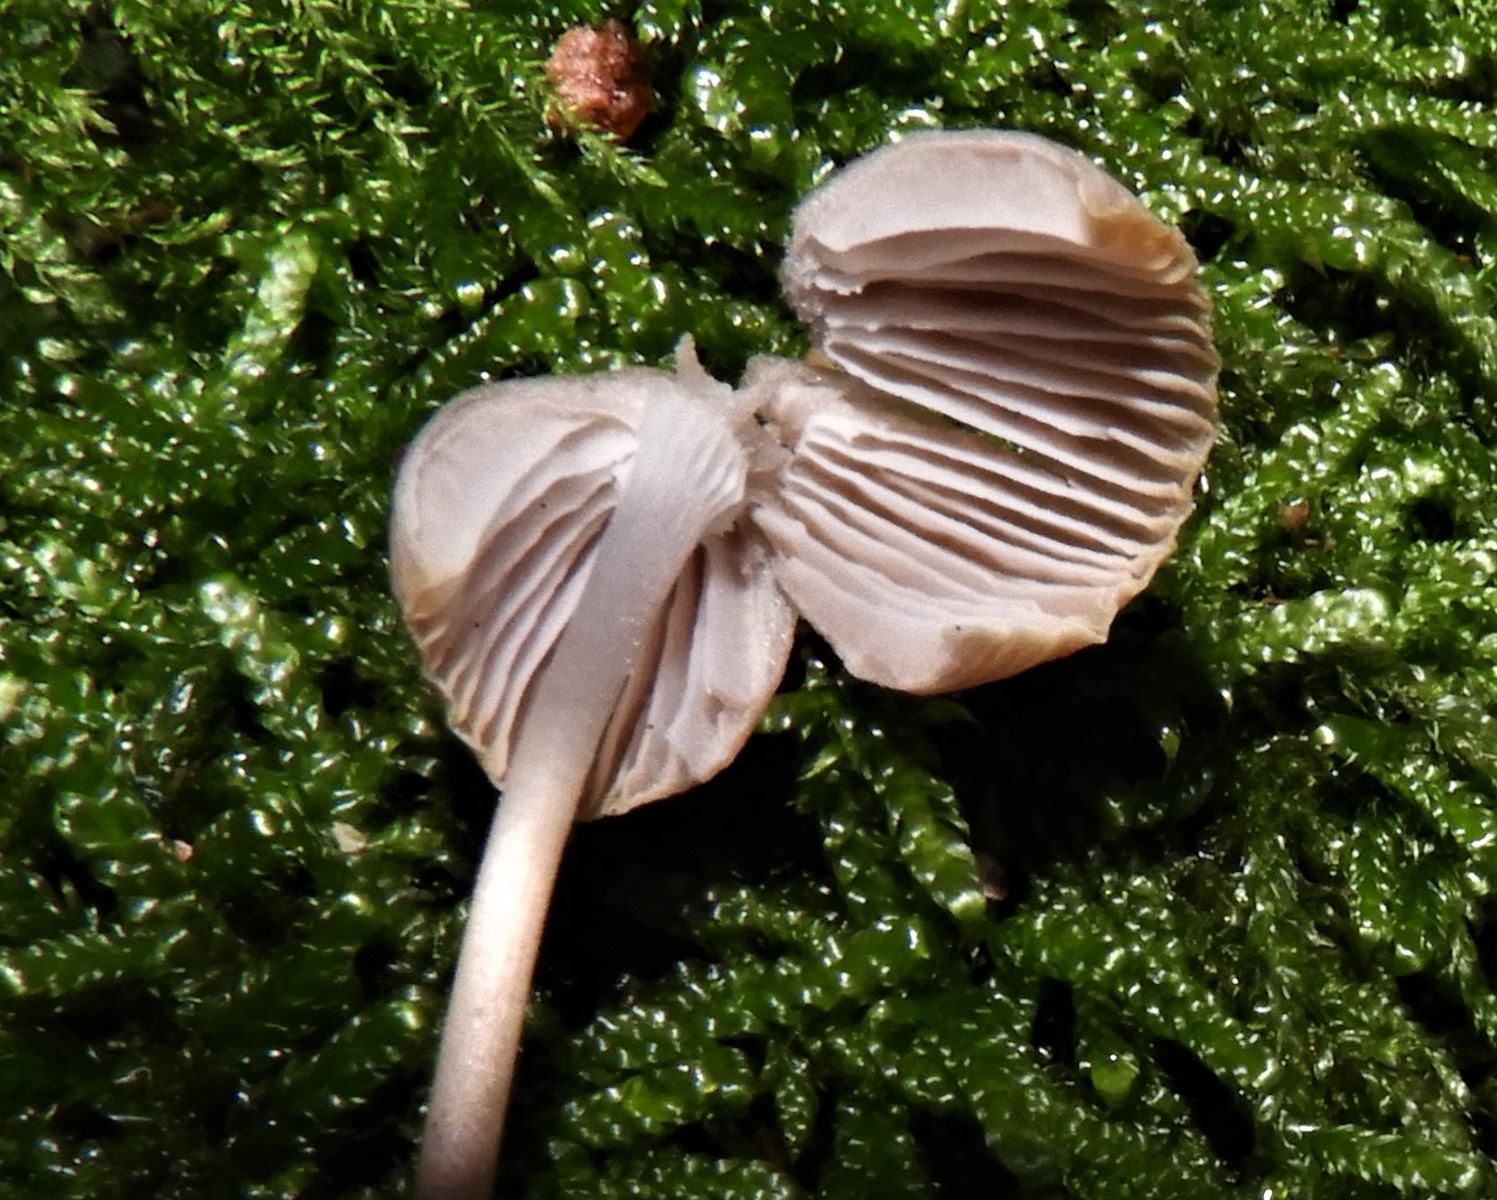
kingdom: Fungi
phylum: Basidiomycota
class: Agaricomycetes
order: Agaricales
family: Mycenaceae
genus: Mycena
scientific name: Mycena
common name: huesvamp
